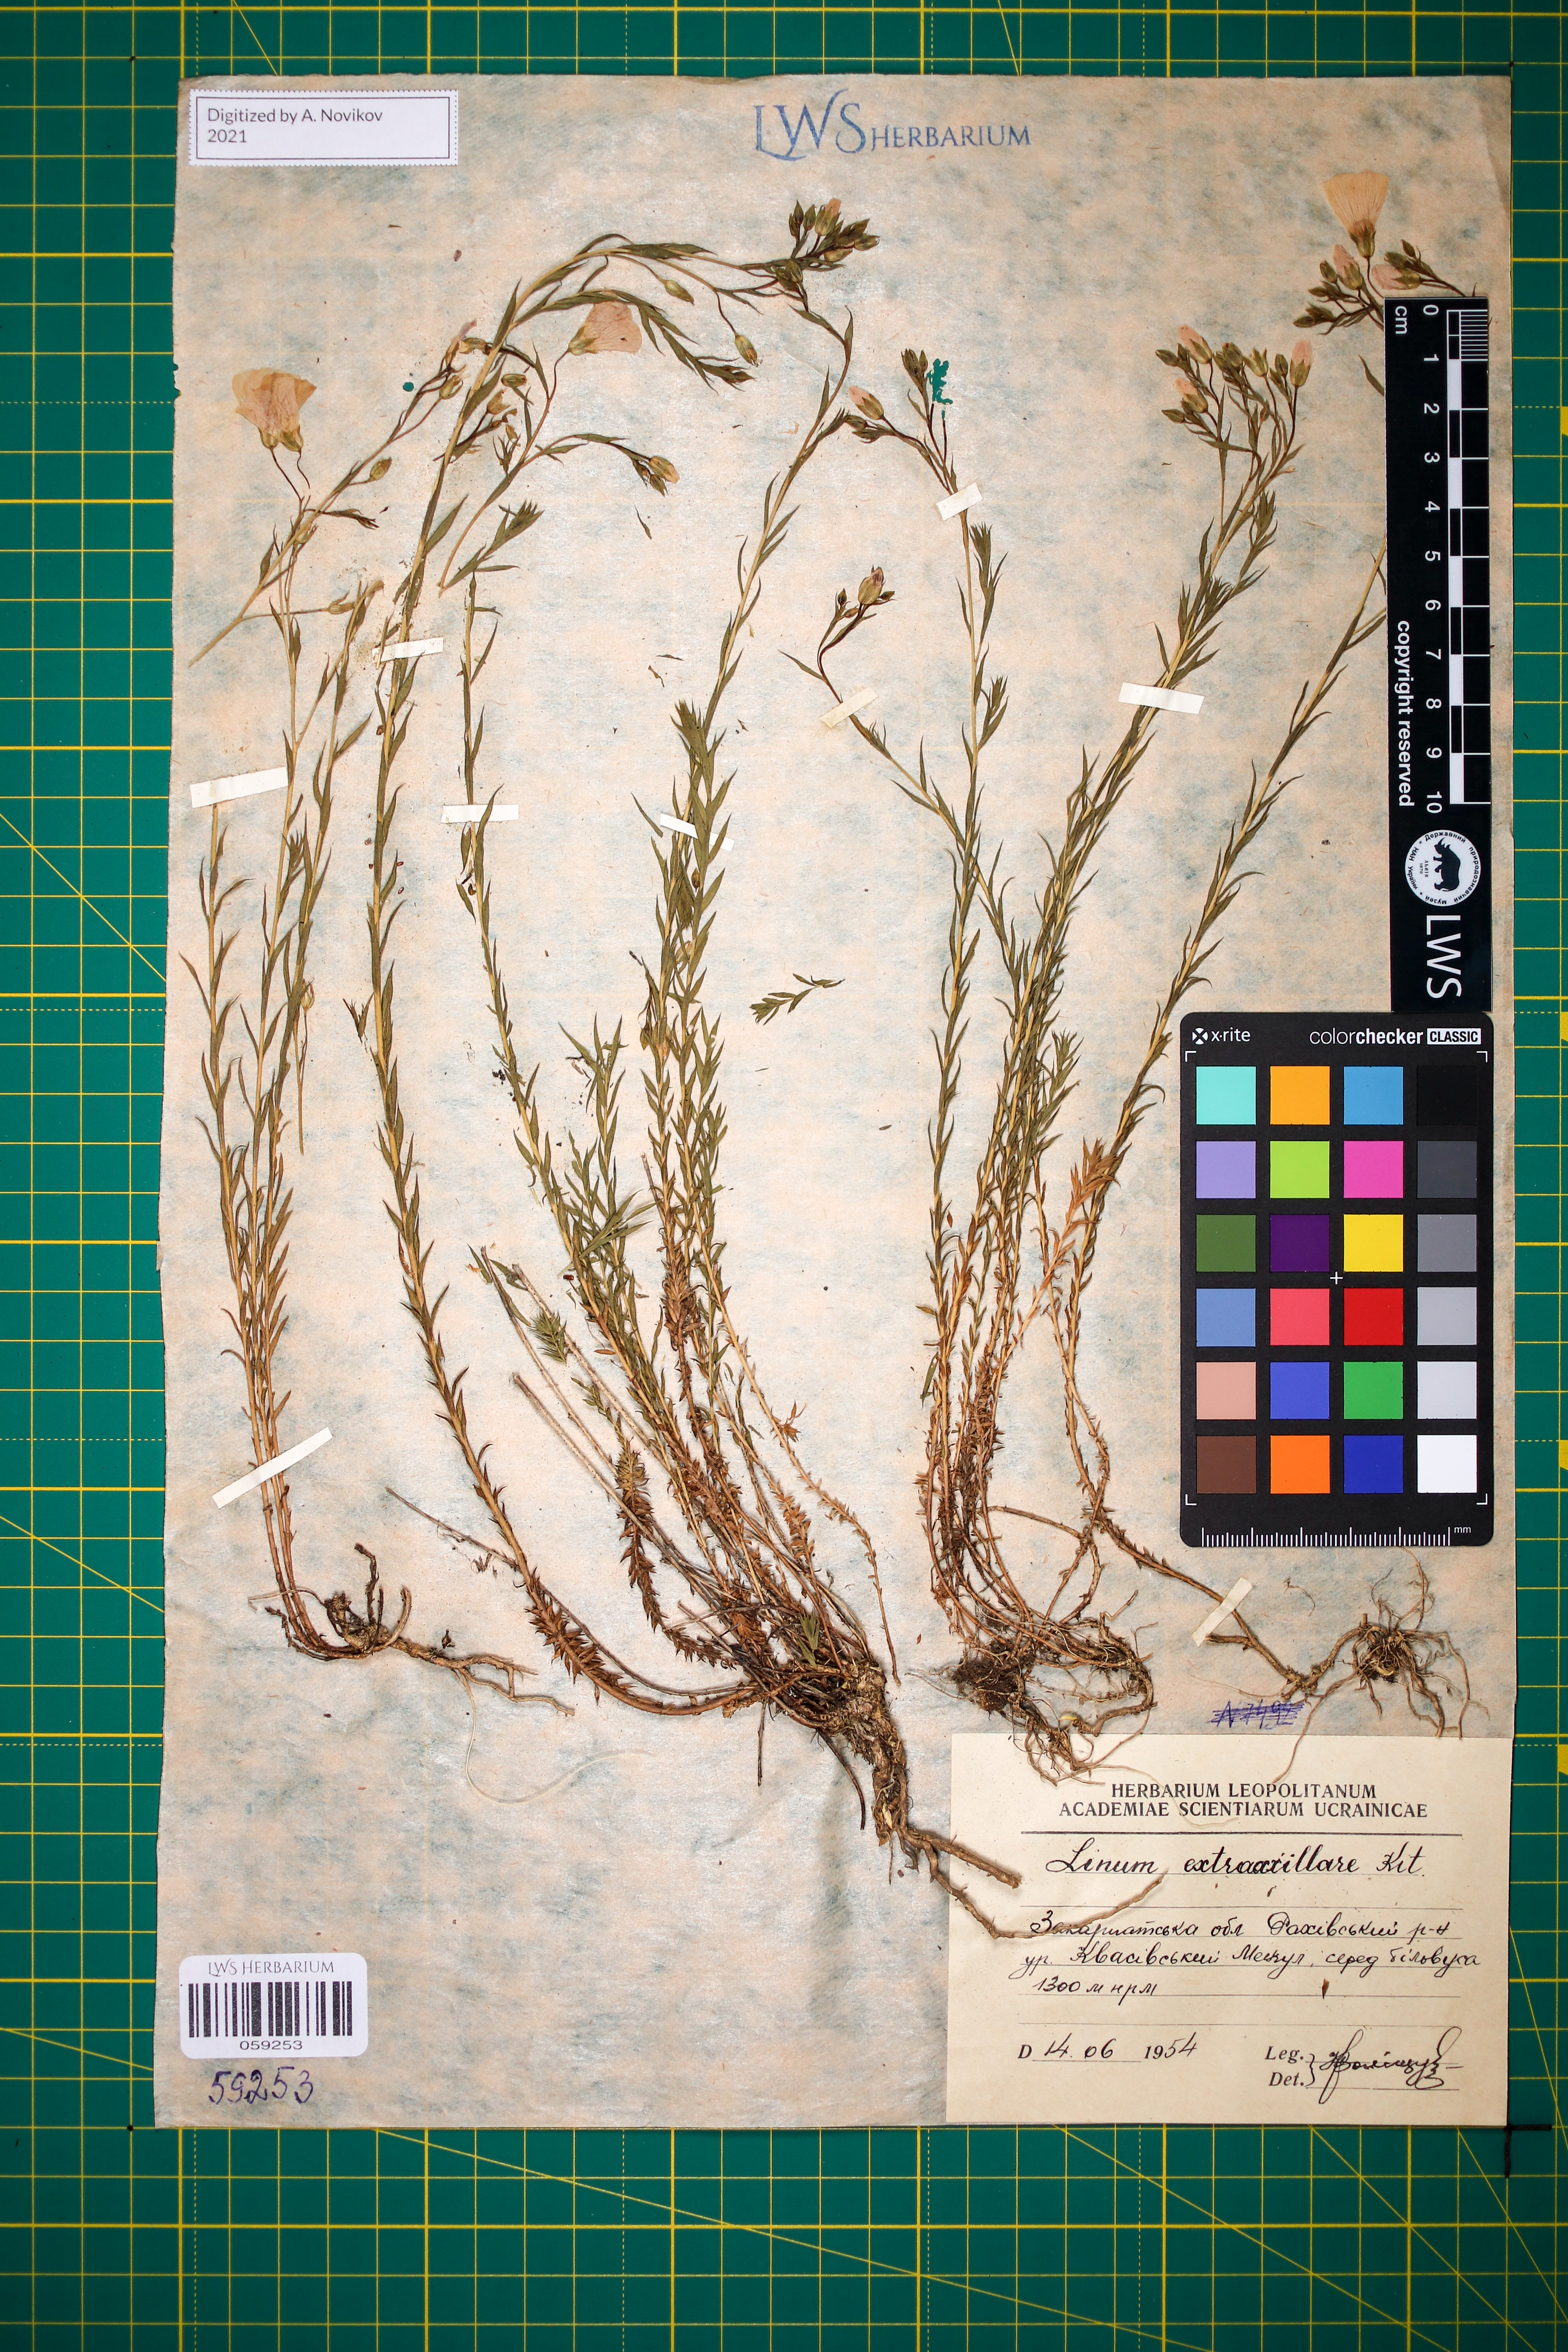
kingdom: Plantae
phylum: Tracheophyta
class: Magnoliopsida
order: Malpighiales
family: Linaceae
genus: Linum
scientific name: Linum perenne
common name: Blue flax
